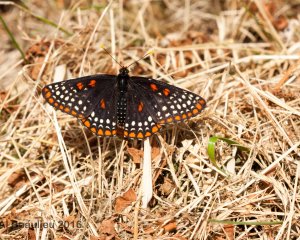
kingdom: Animalia
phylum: Arthropoda
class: Insecta
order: Lepidoptera
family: Nymphalidae
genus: Euphydryas
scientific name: Euphydryas phaeton
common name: Baltimore Checkerspot
